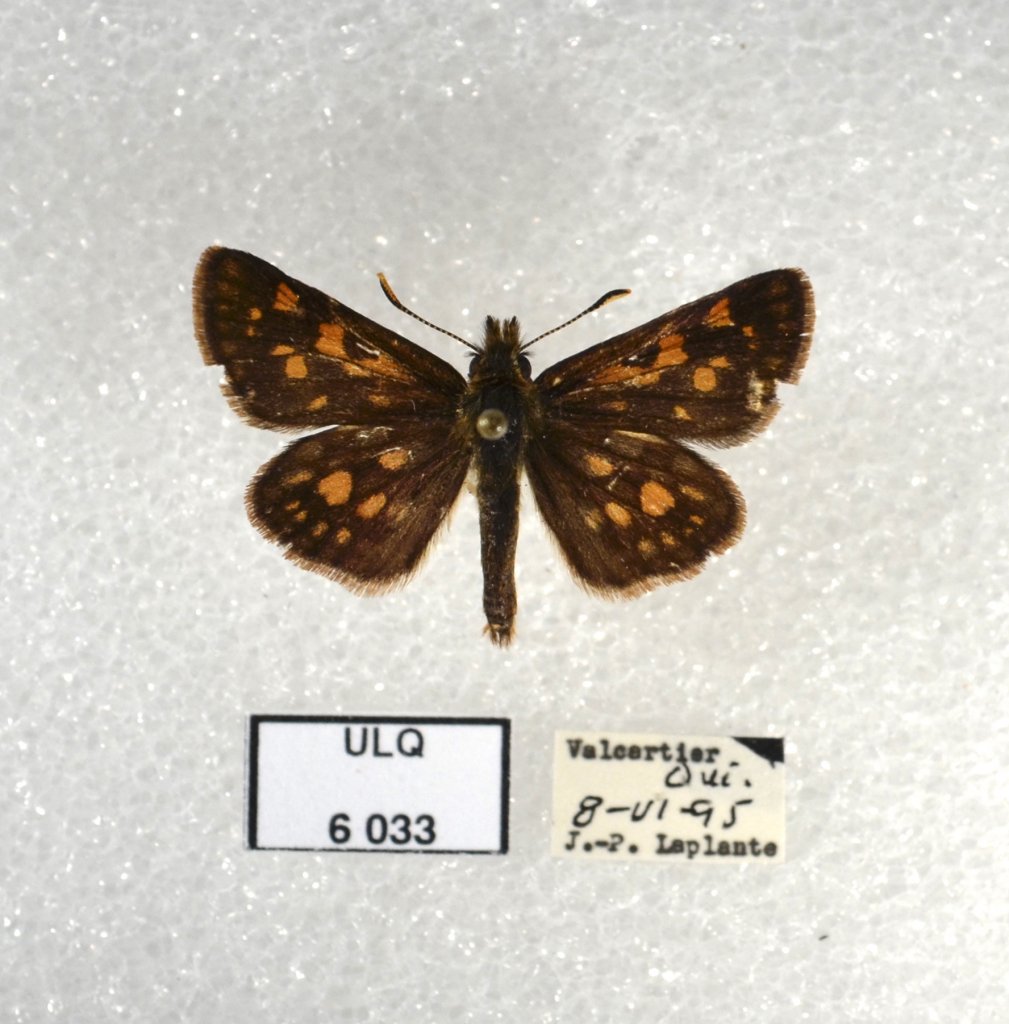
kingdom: Animalia
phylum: Arthropoda
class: Insecta
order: Lepidoptera
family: Hesperiidae
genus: Carterocephalus
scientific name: Carterocephalus palaemon
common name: Chequered Skipper
